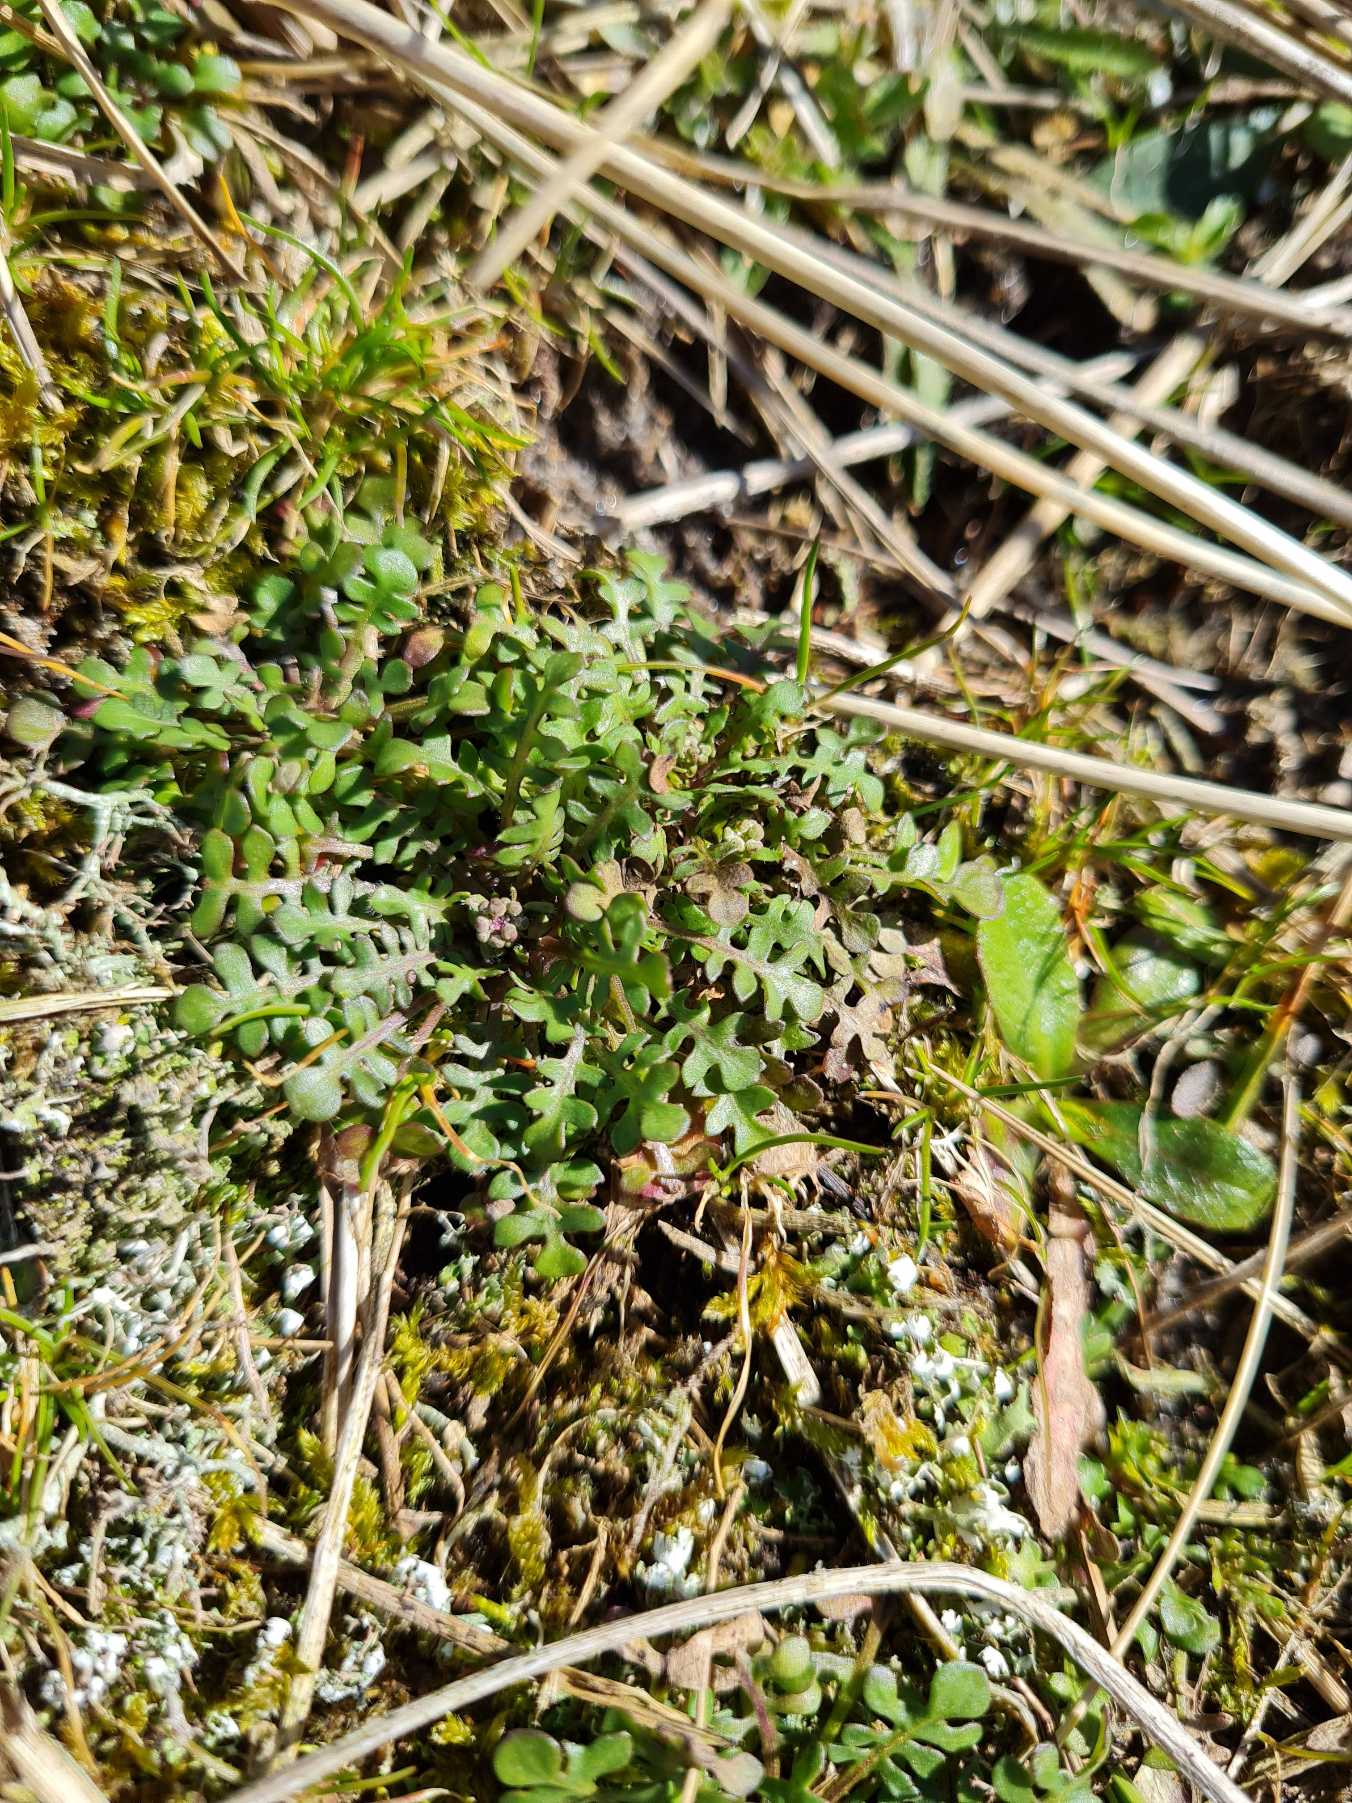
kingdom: Plantae
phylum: Tracheophyta
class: Magnoliopsida
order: Brassicales
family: Brassicaceae
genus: Teesdalia
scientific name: Teesdalia nudicaulis
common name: Flipkrave
